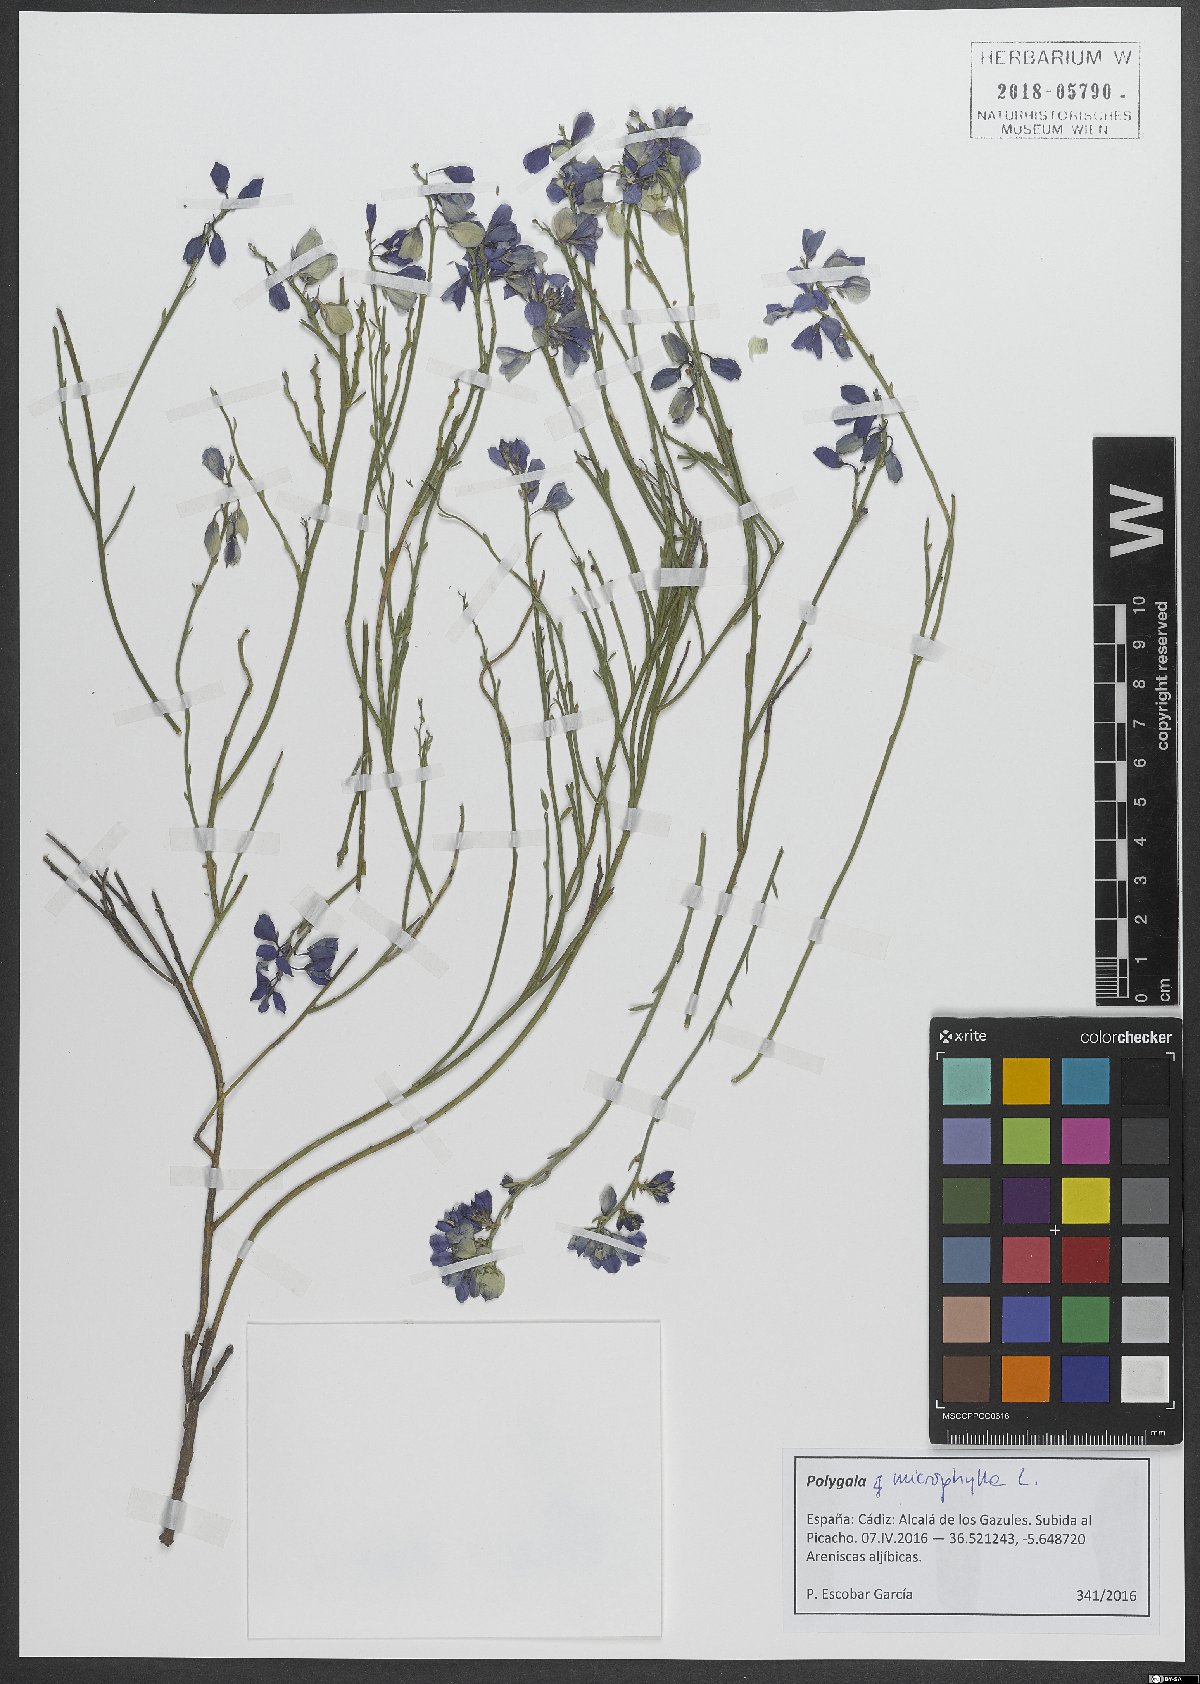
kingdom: Plantae
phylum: Tracheophyta
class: Magnoliopsida
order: Fabales
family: Polygalaceae
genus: Polygala
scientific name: Polygala microphylla
